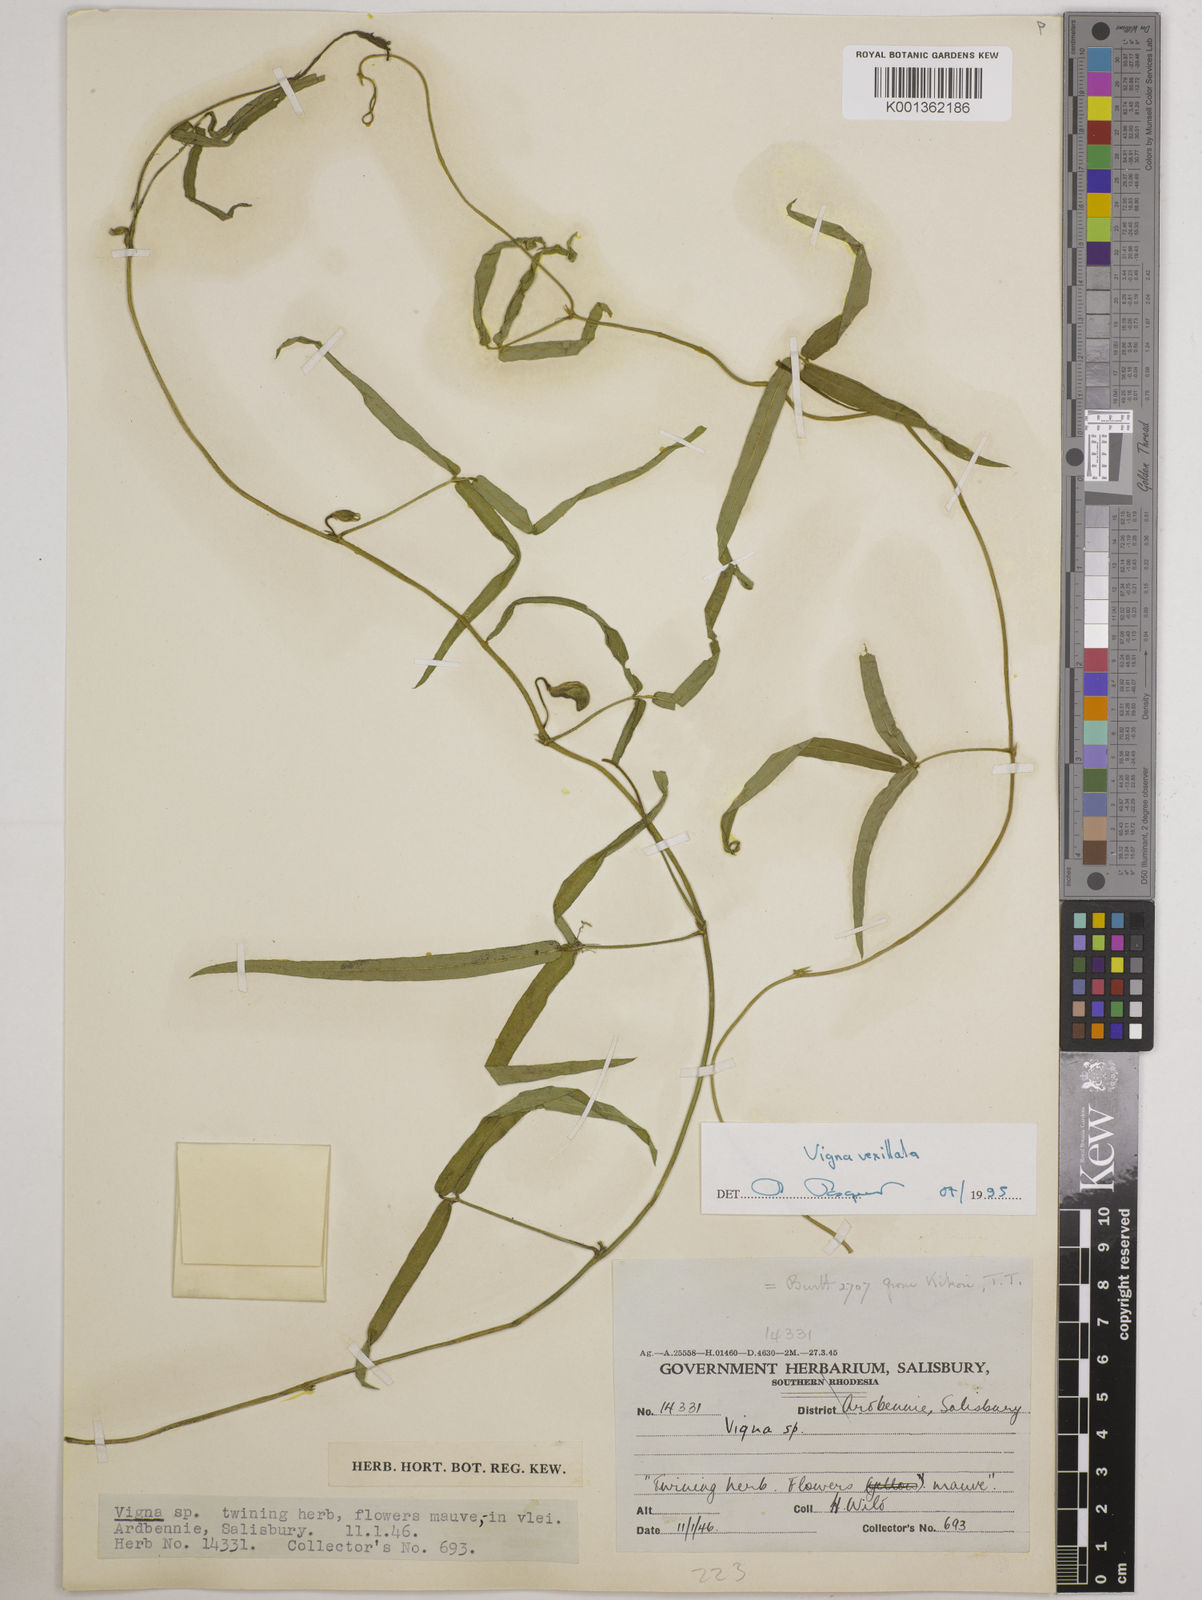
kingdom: Plantae
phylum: Tracheophyta
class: Magnoliopsida
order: Fabales
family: Fabaceae
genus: Vigna
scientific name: Vigna vexillata
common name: Zombi pea
